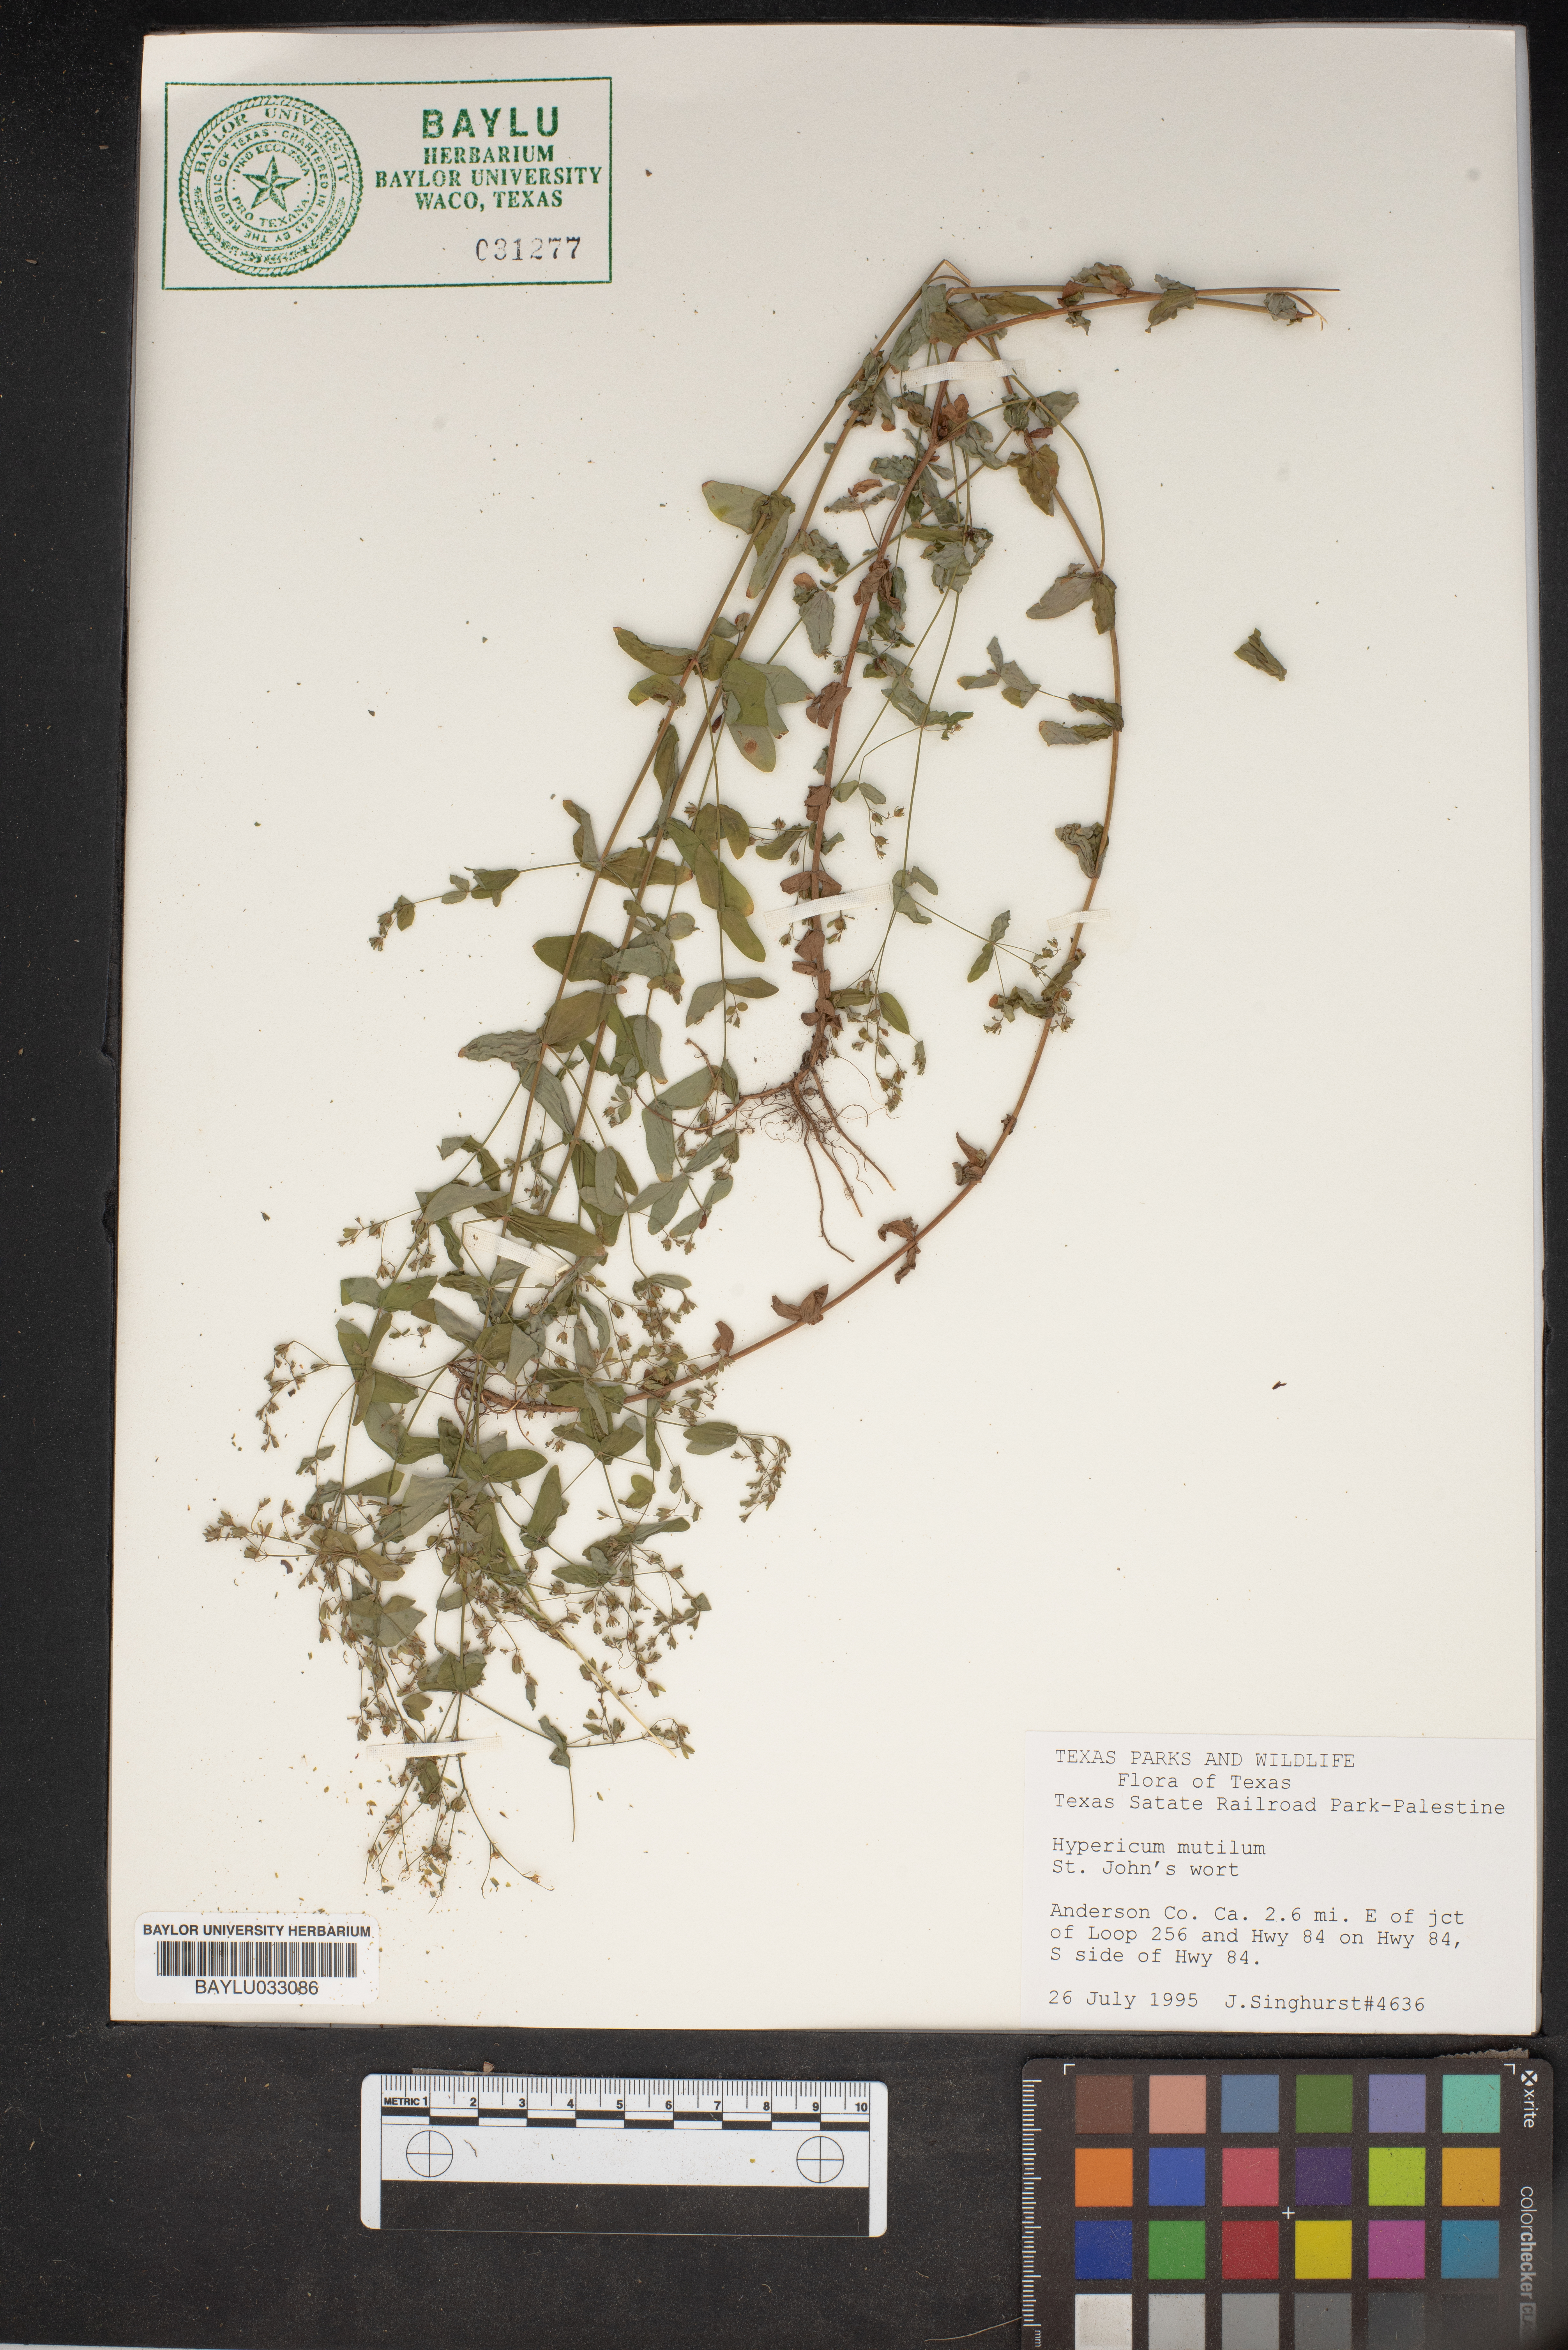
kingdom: Plantae
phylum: Tracheophyta
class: Magnoliopsida
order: Malpighiales
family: Hypericaceae
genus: Hypericum
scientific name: Hypericum mutilum
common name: Dwarf st. john's-wort
